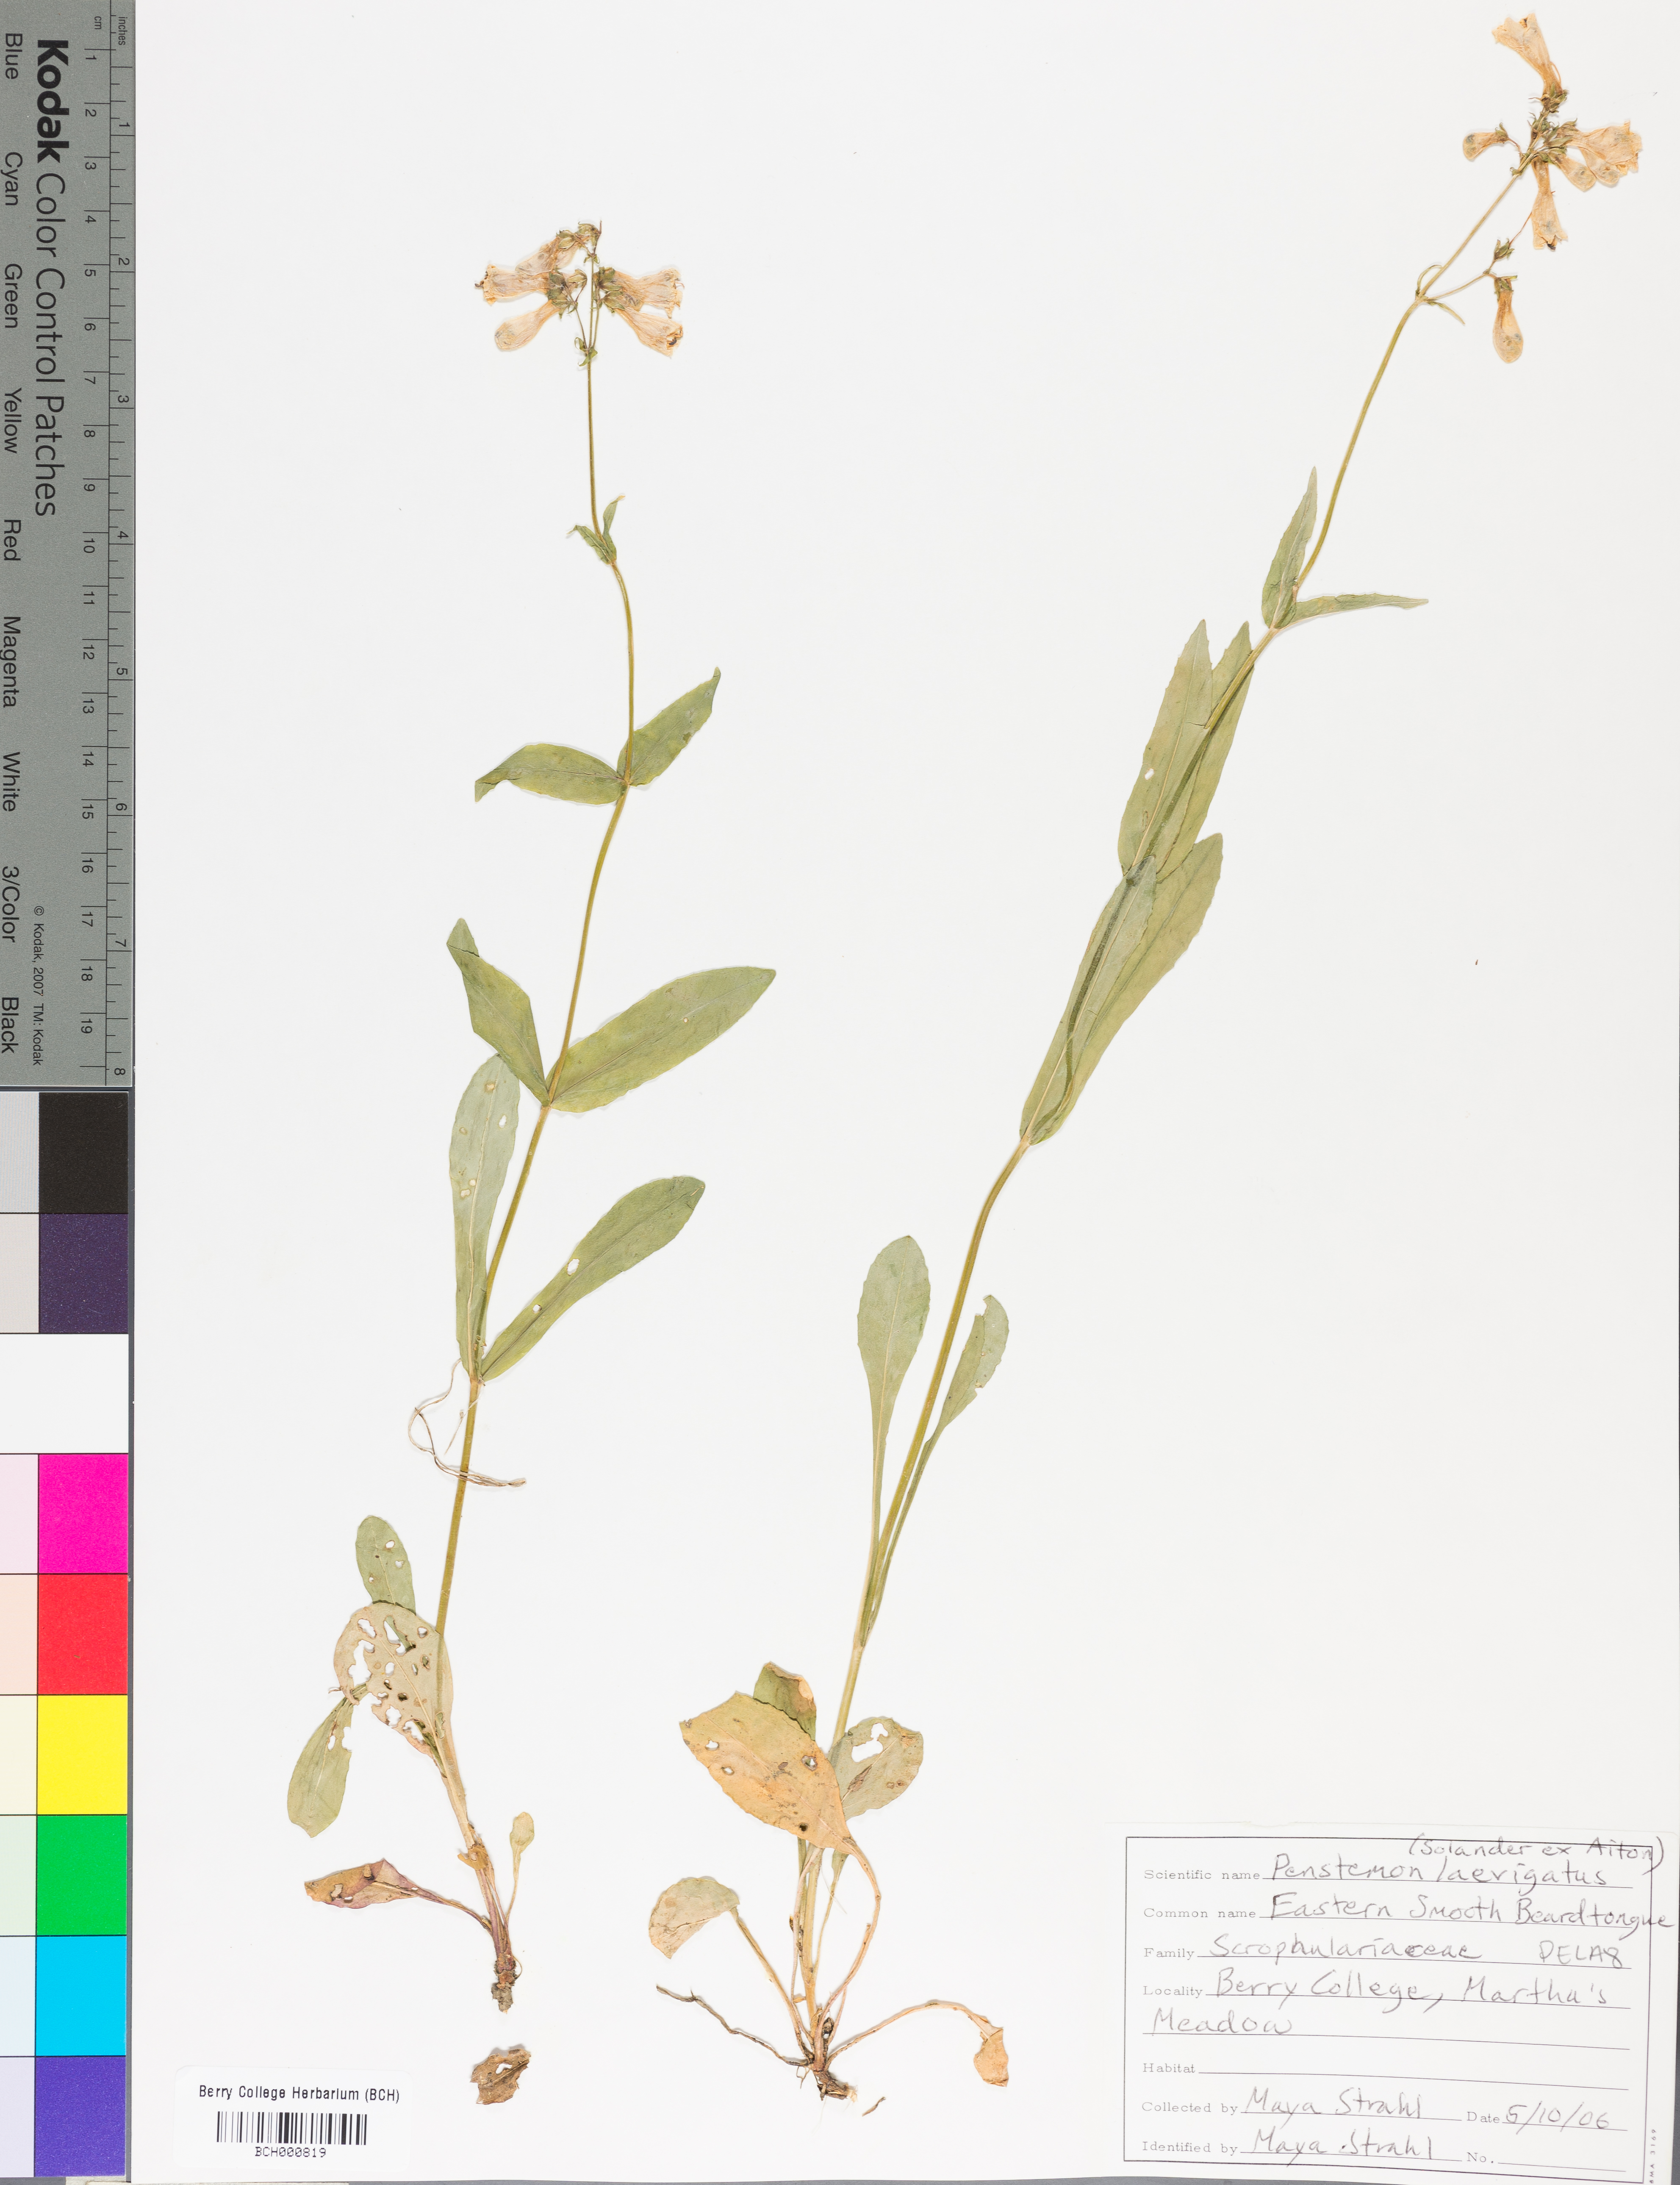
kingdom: Plantae
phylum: Tracheophyta
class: Magnoliopsida
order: Lamiales
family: Plantaginaceae
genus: Penstemon
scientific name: Penstemon laevigatus
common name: Eastern beardtongue
